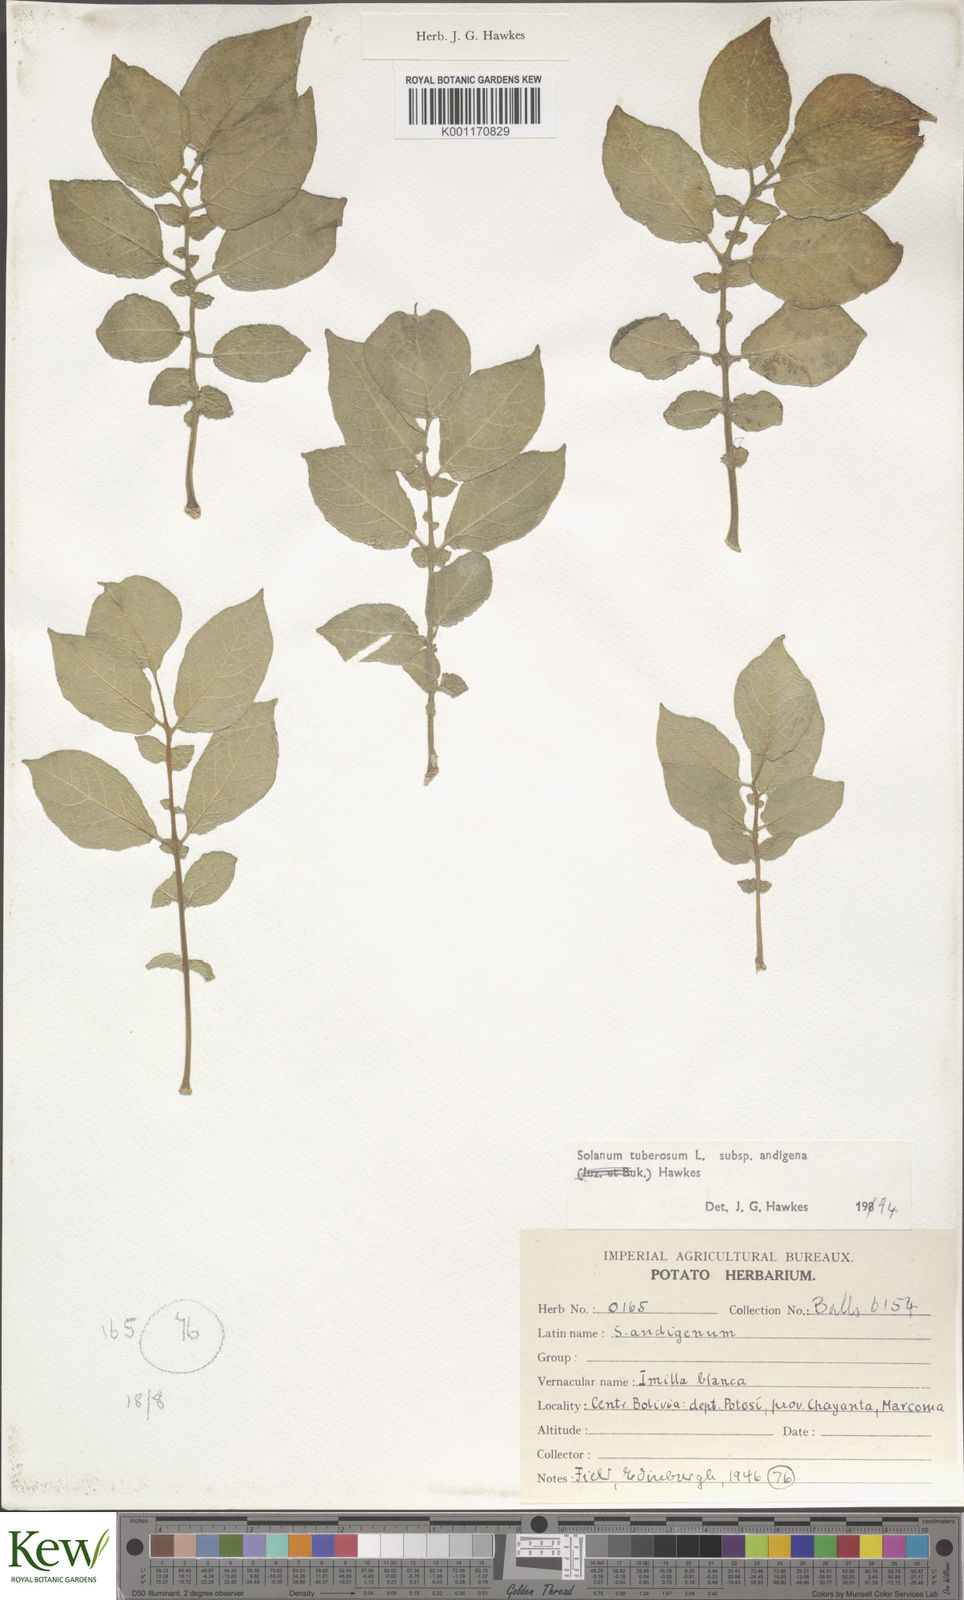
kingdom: Plantae
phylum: Tracheophyta
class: Magnoliopsida
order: Solanales
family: Solanaceae
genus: Solanum
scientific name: Solanum tuberosum
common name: Potato
